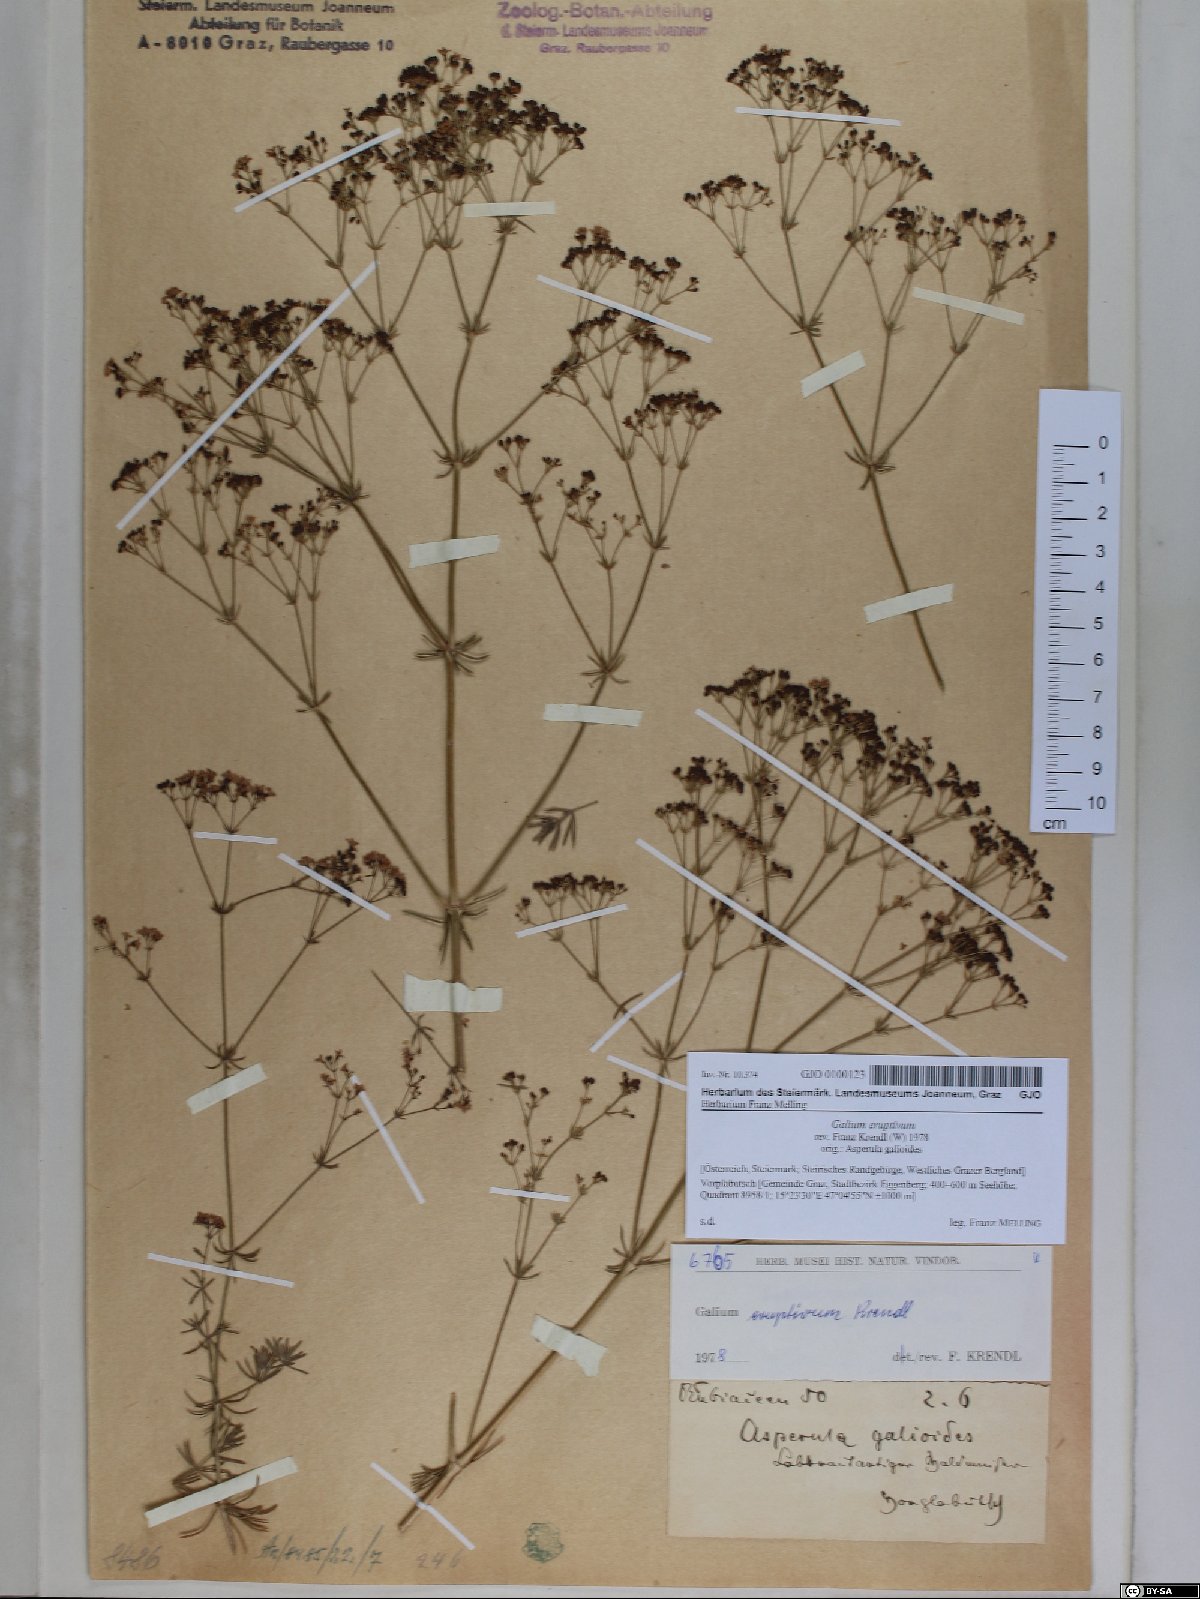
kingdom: Plantae
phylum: Tracheophyta
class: Magnoliopsida
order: Gentianales
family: Rubiaceae
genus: Galium
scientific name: Galium eruptivum
